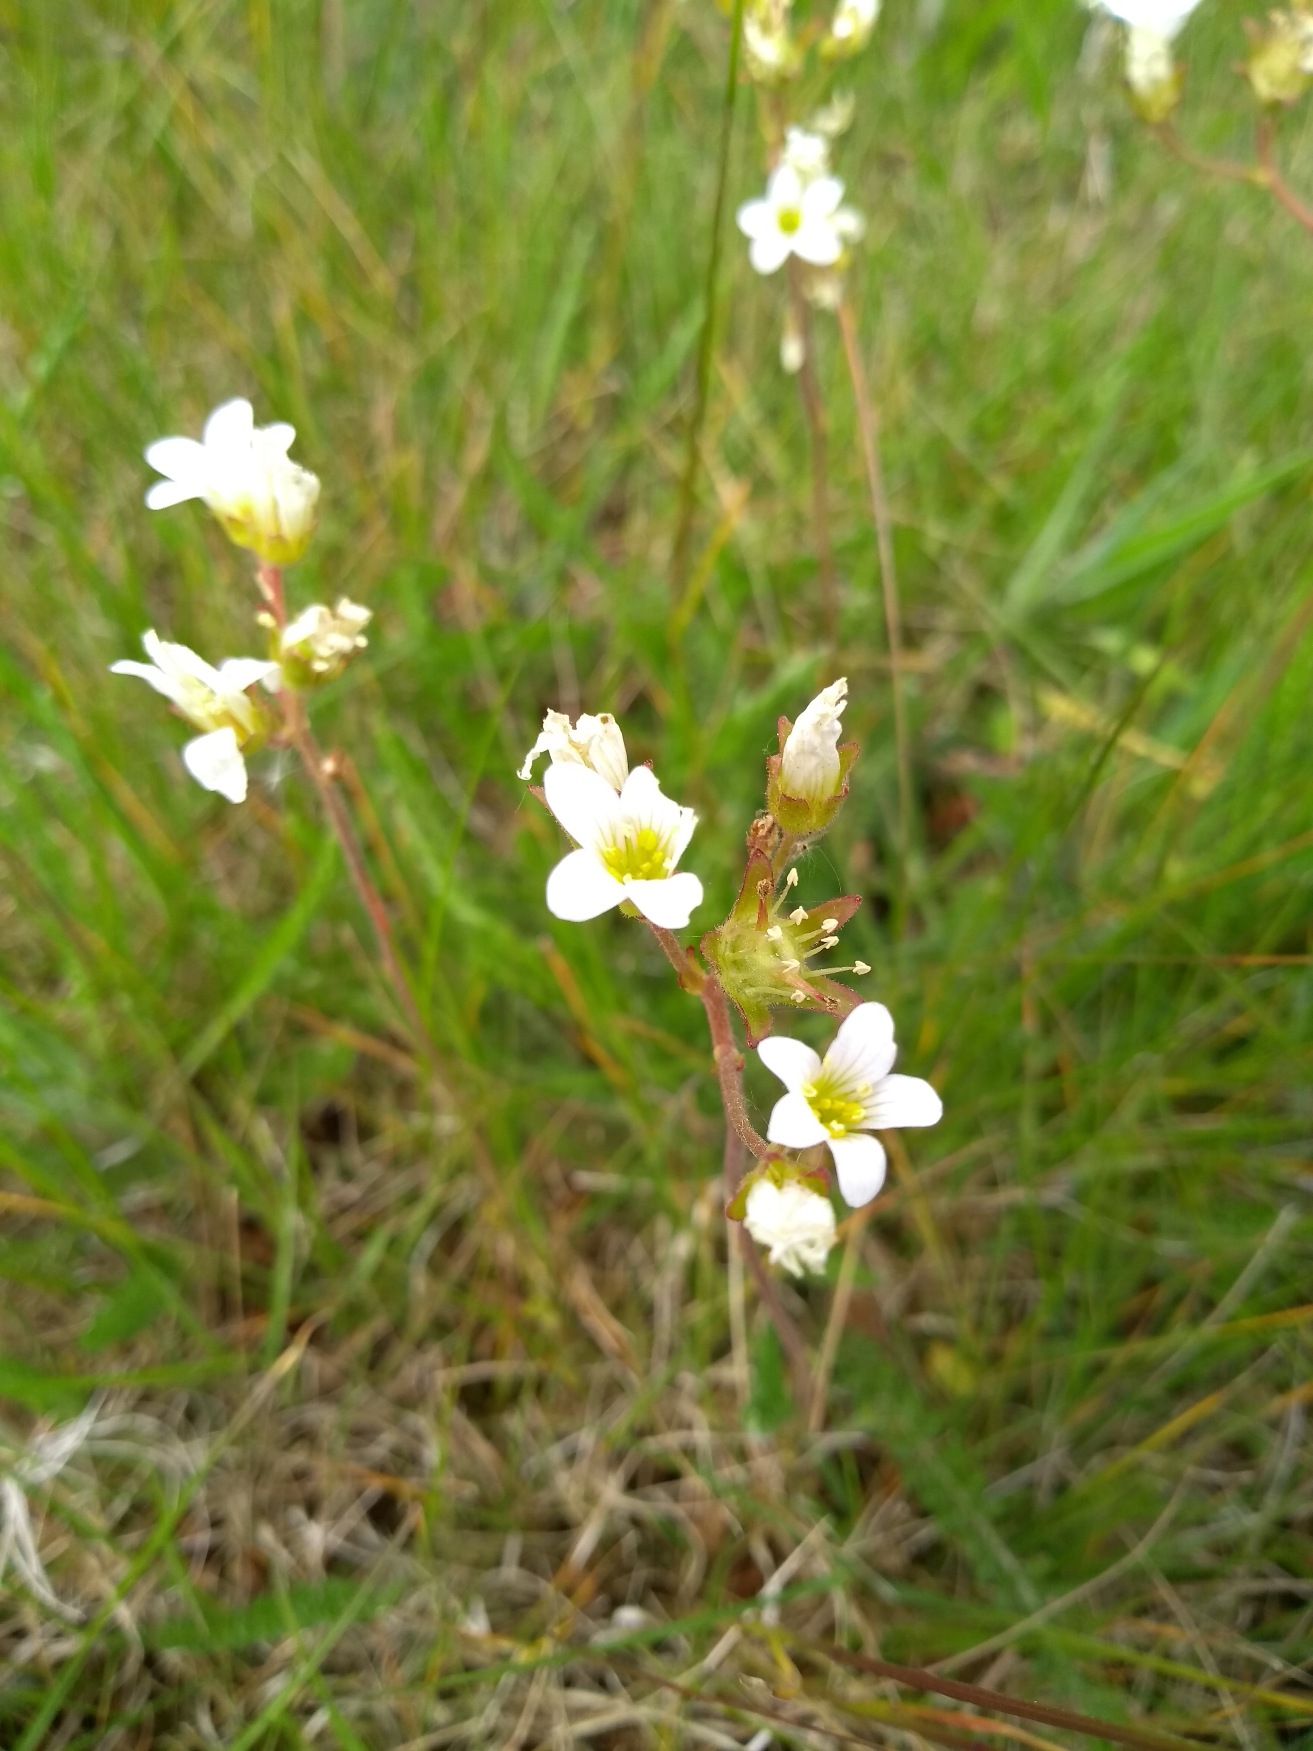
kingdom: Plantae
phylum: Tracheophyta
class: Magnoliopsida
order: Saxifragales
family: Saxifragaceae
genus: Saxifraga
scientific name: Saxifraga granulata
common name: Kornet stenbræk
